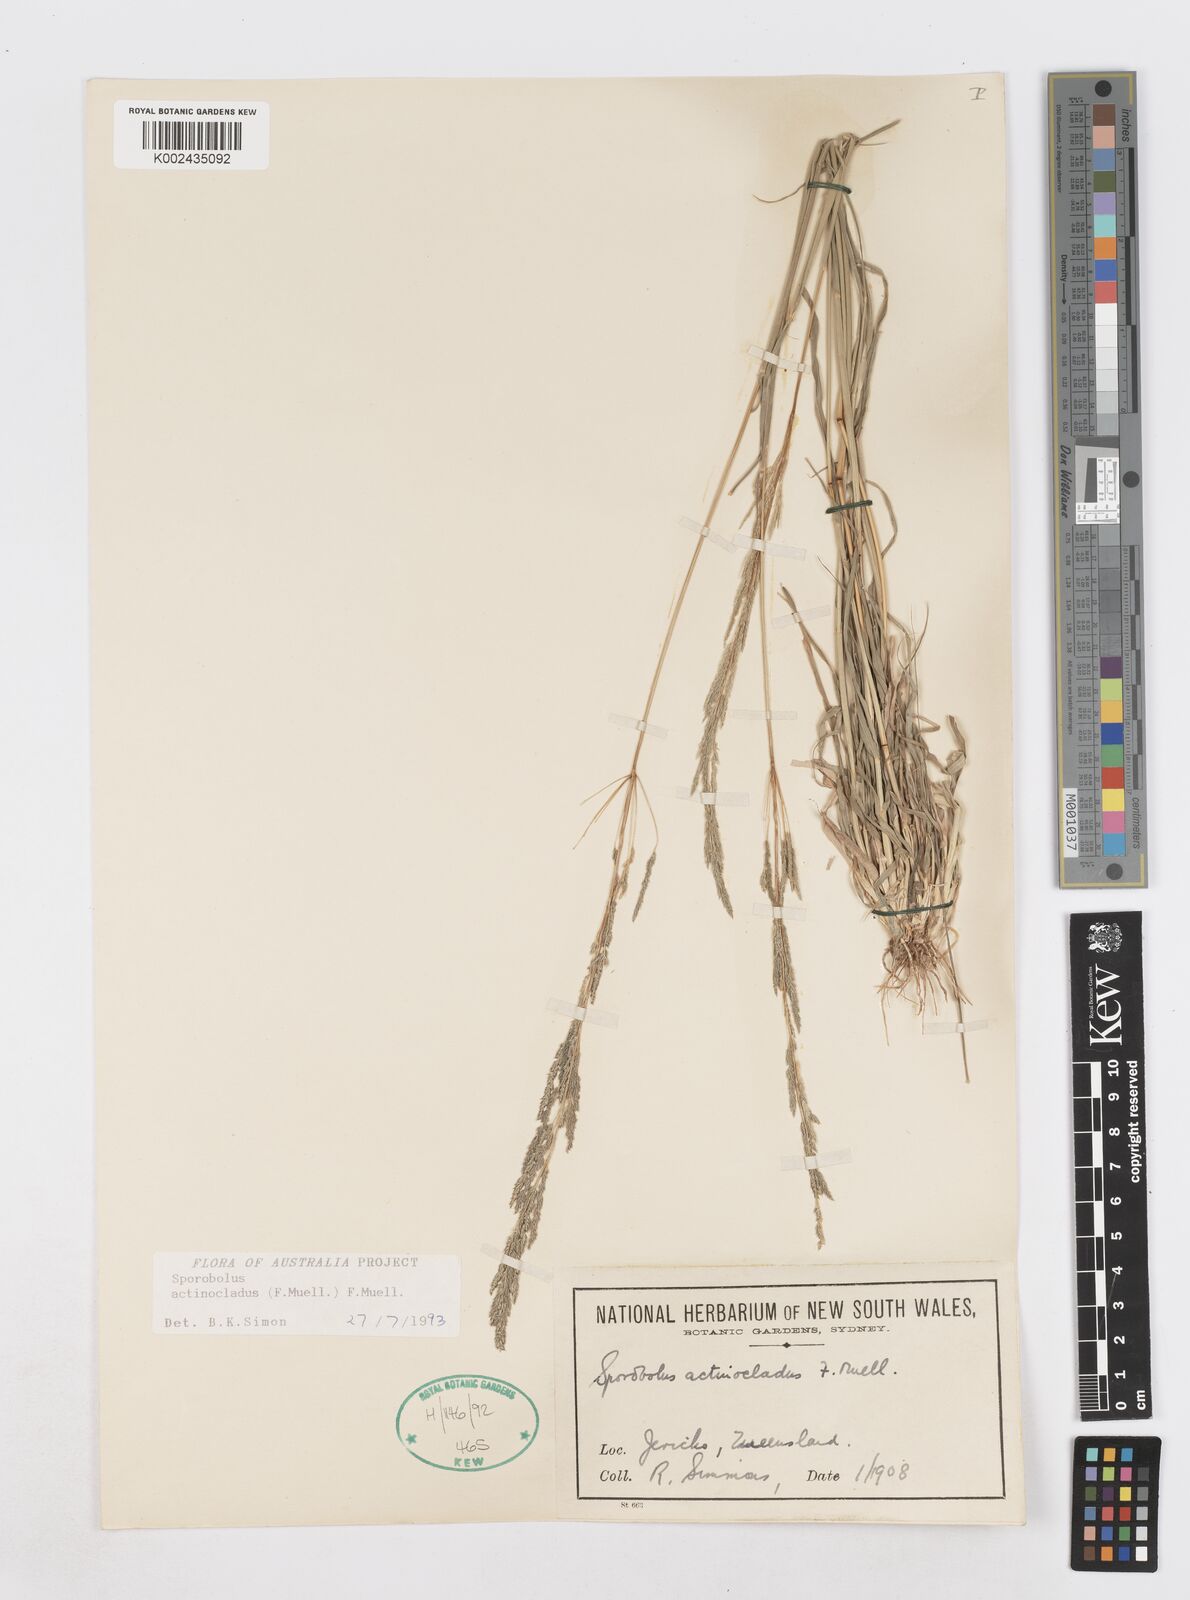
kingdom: Plantae
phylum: Tracheophyta
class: Liliopsida
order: Poales
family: Poaceae
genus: Sporobolus
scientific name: Sporobolus actinocladus
